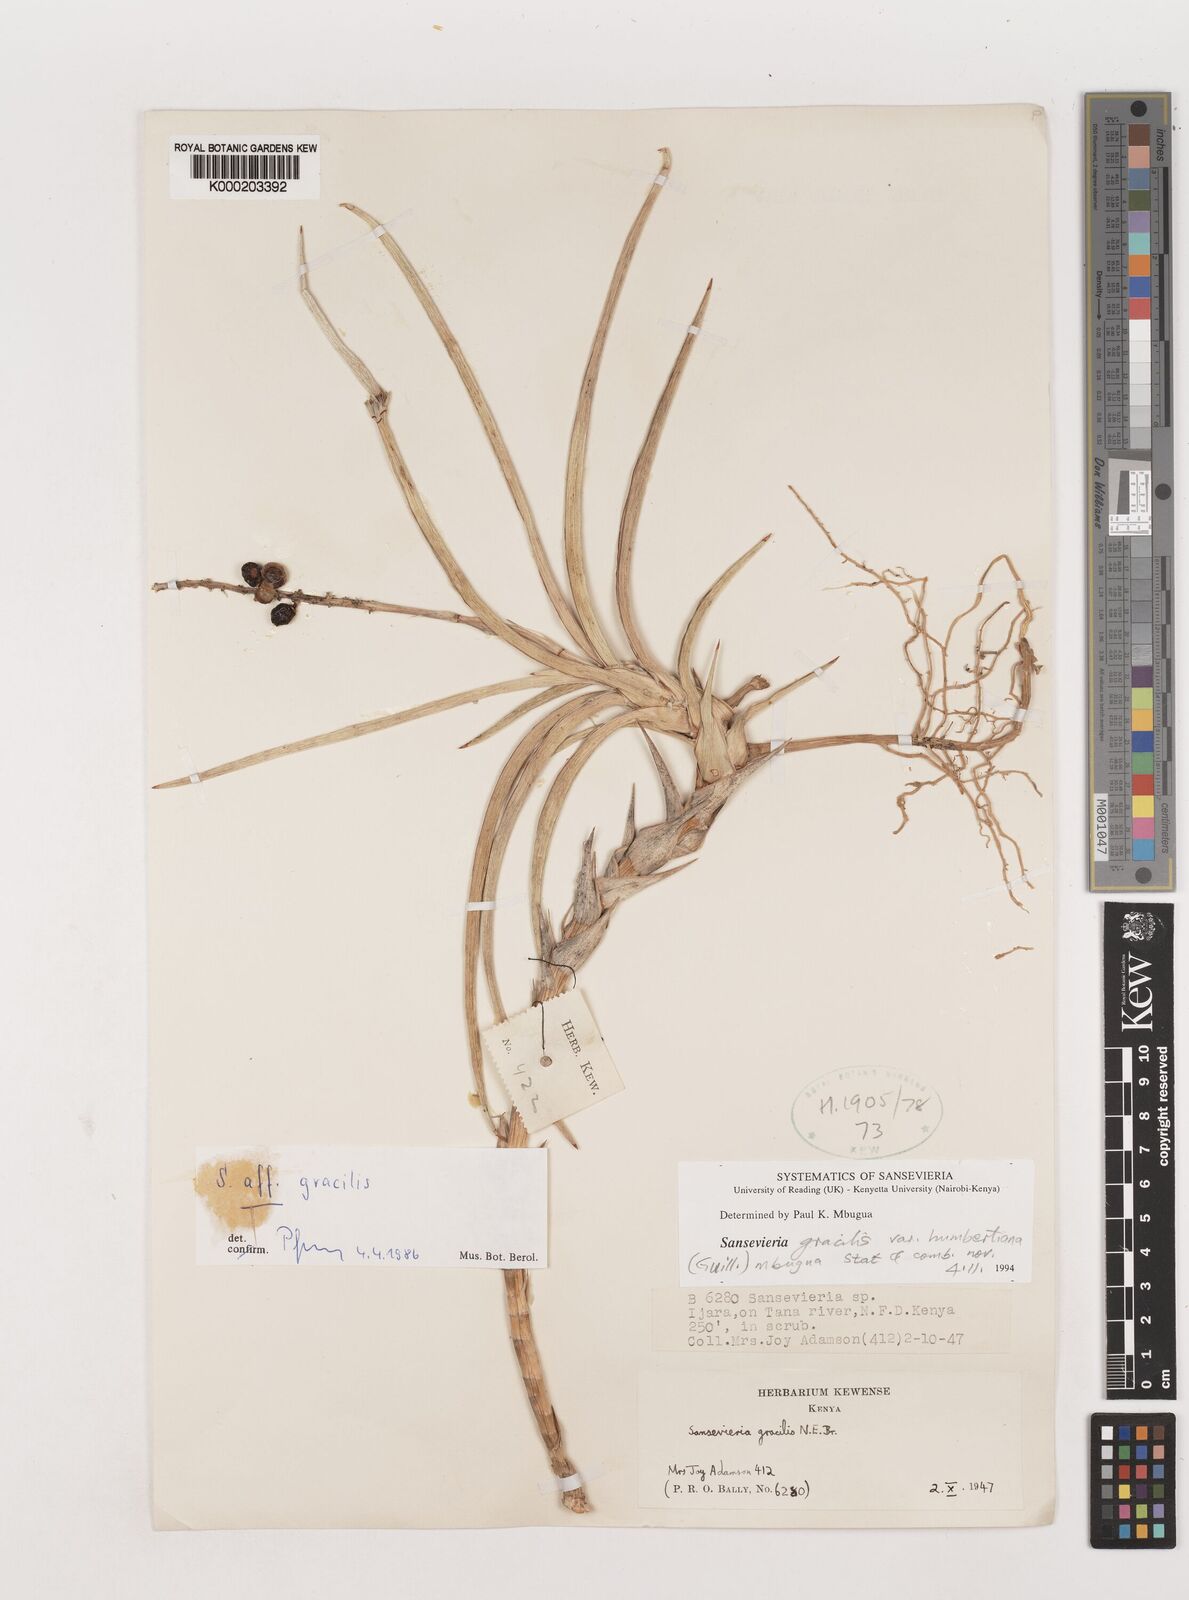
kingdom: Plantae
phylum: Tracheophyta
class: Liliopsida
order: Asparagales
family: Asparagaceae
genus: Dracaena
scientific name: Dracaena serpenta
